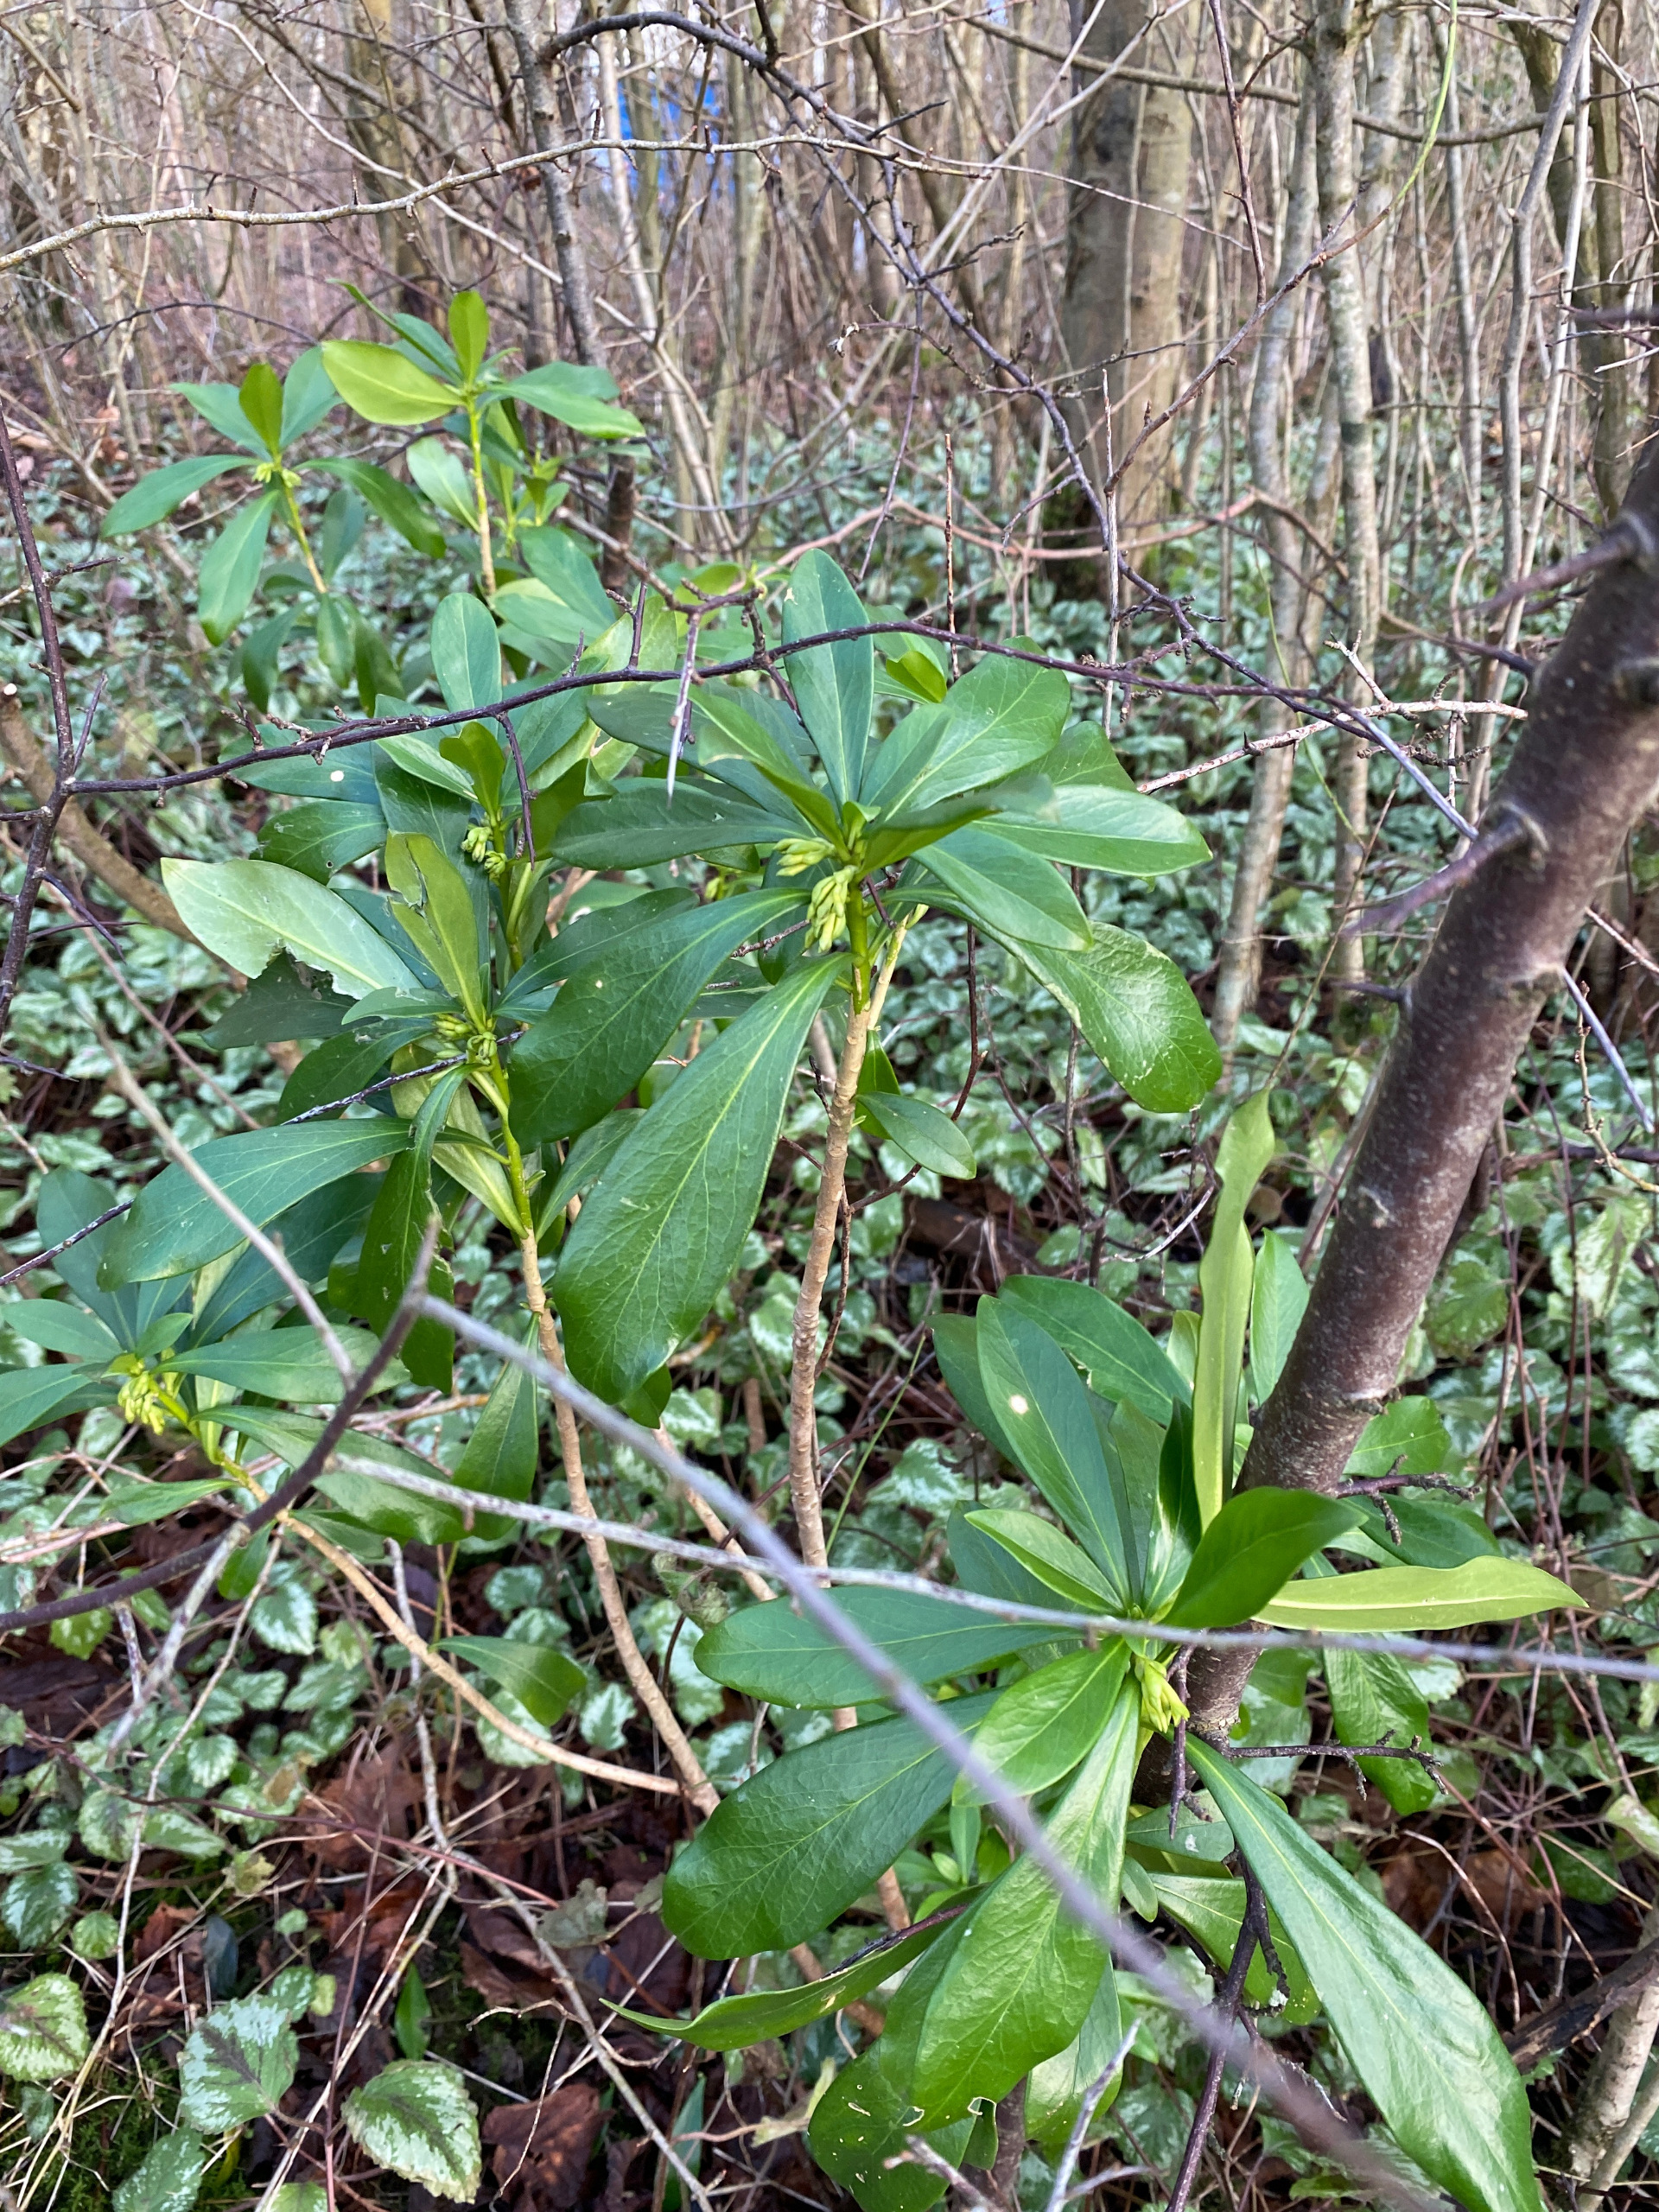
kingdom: Plantae
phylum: Tracheophyta
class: Magnoliopsida
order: Malvales
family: Thymelaeaceae
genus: Daphne
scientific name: Daphne laureola
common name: Laurbær-dafne
